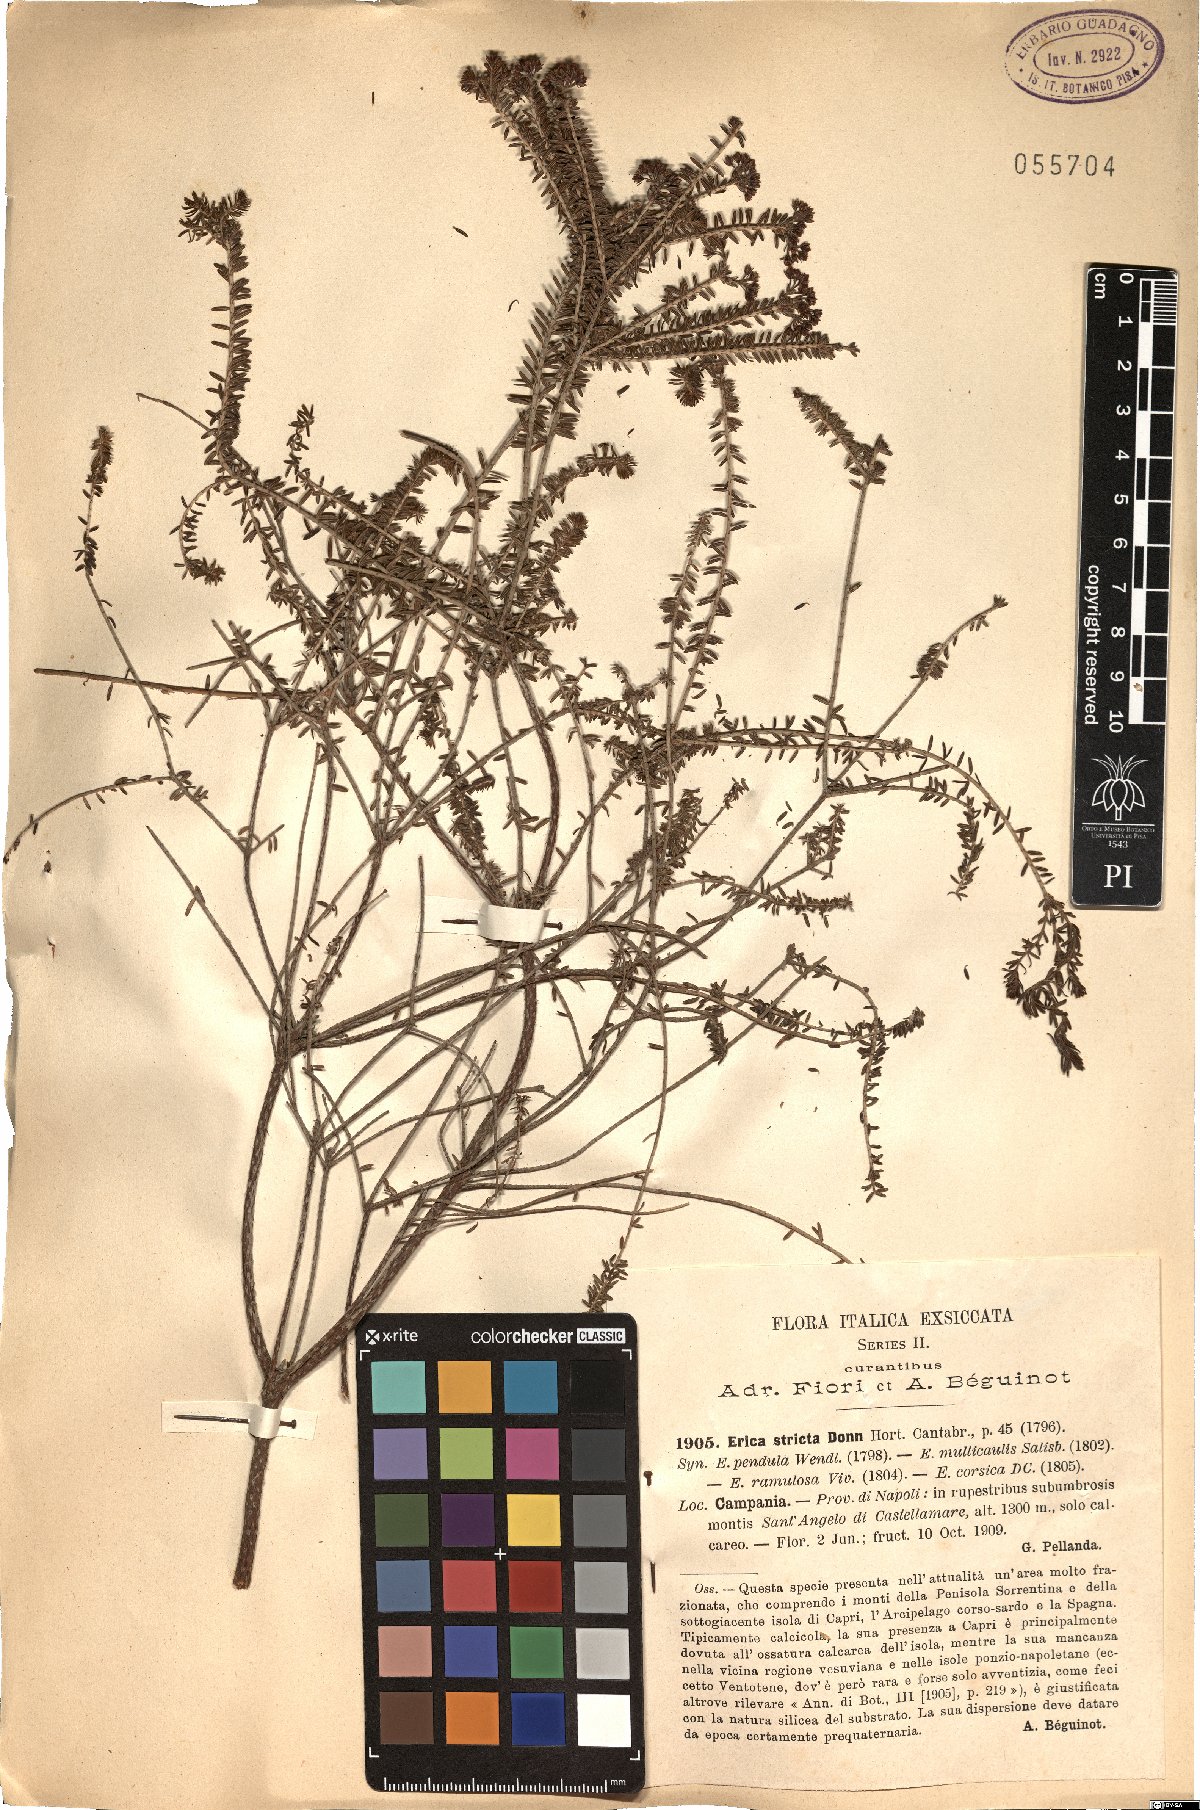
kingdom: Plantae
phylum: Tracheophyta
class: Magnoliopsida
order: Ericales
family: Ericaceae
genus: Erica
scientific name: Erica terminalis
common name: Corsican heath
